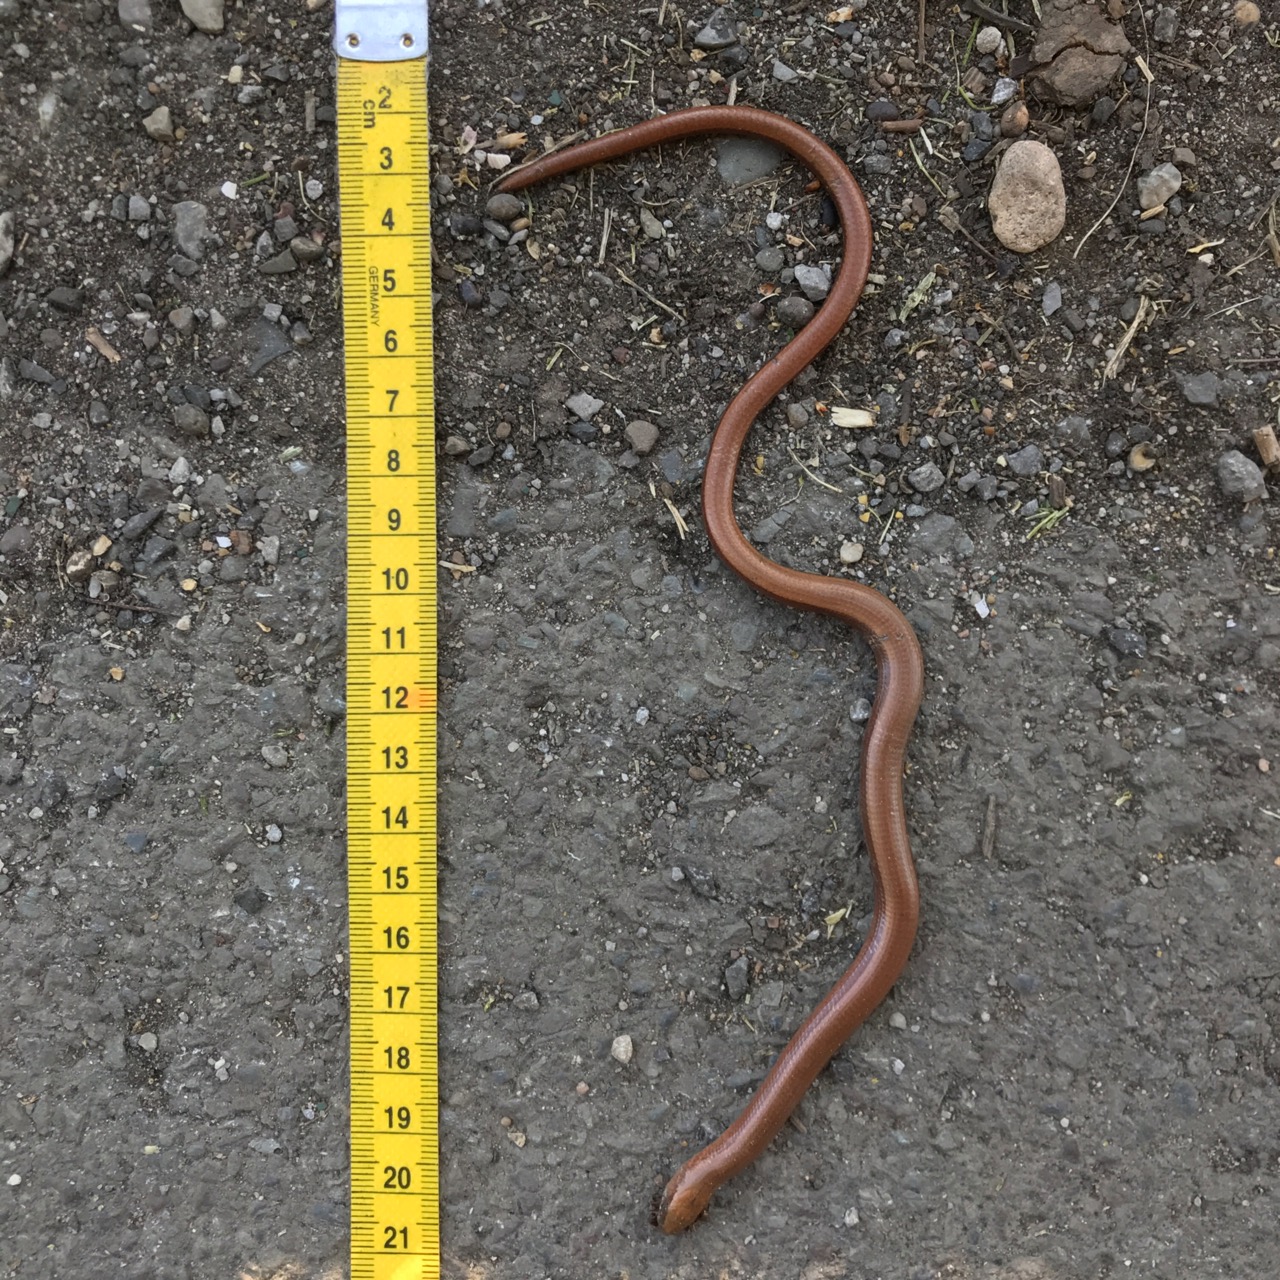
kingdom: Animalia
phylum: Chordata
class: Squamata
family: Anguidae
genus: Anguis
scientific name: Anguis fragilis
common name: Slow worm
